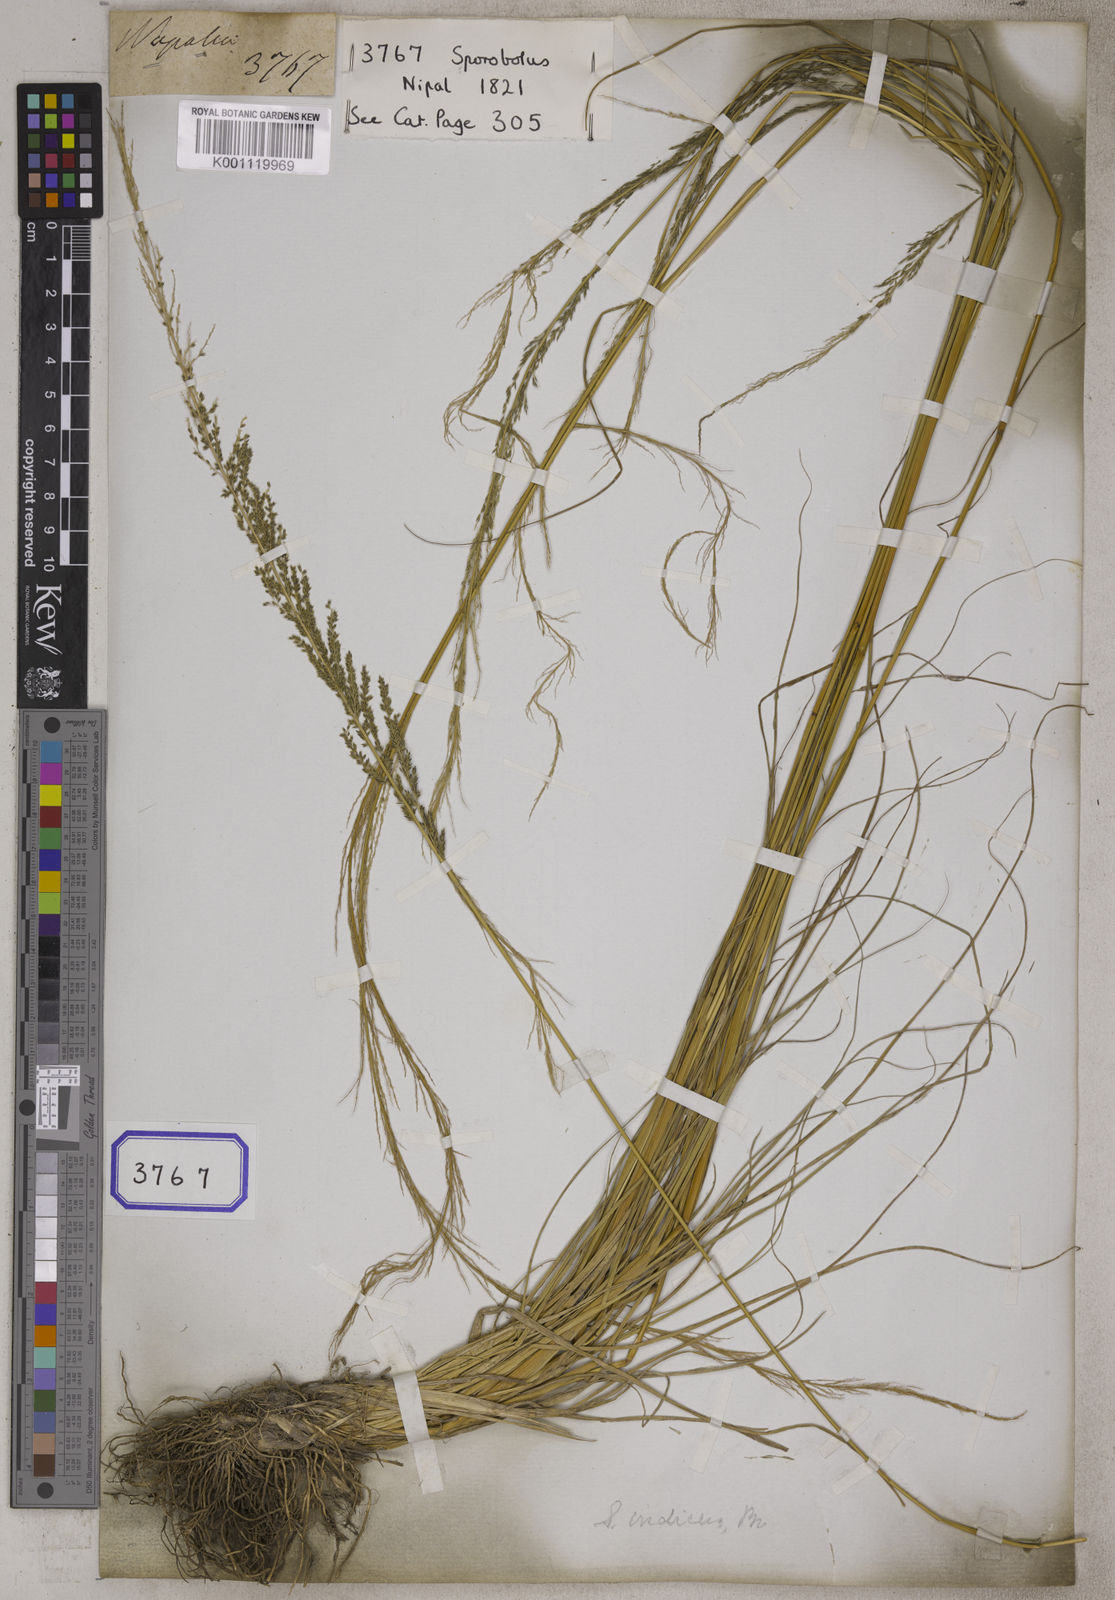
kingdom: Plantae
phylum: Tracheophyta
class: Liliopsida
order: Poales
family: Poaceae
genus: Sporobolus
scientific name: Sporobolus
